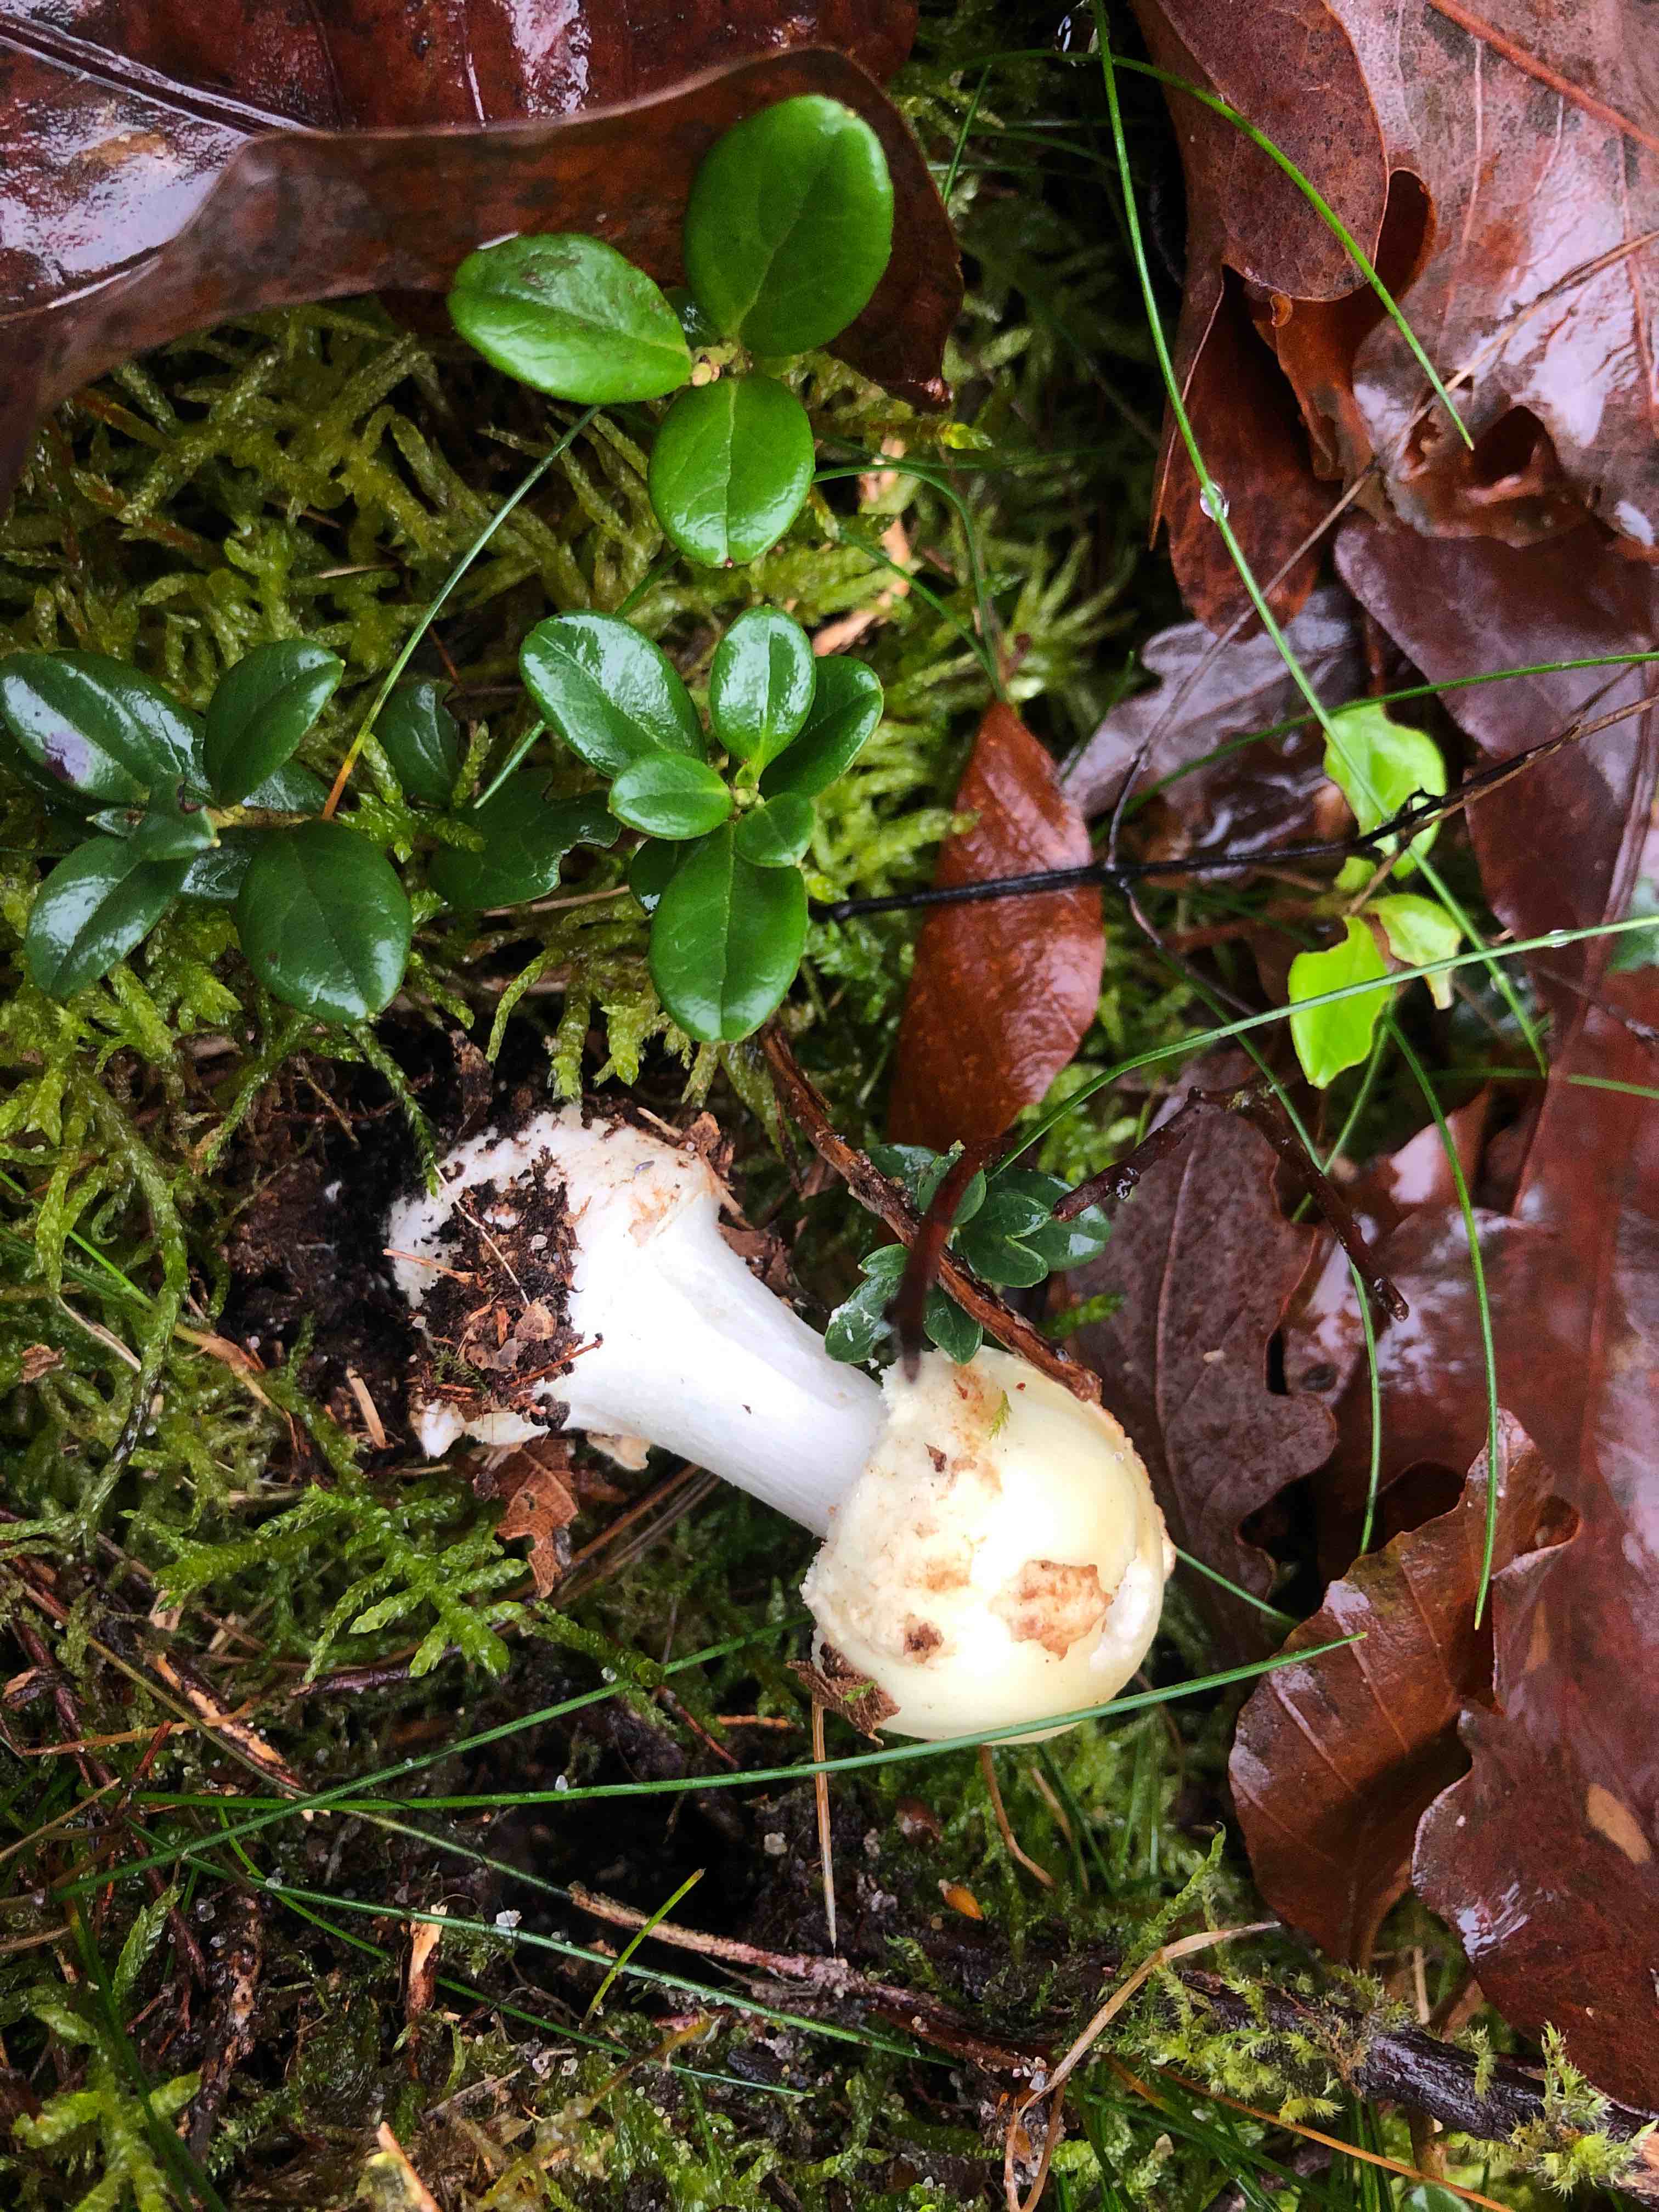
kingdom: Fungi
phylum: Basidiomycota
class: Agaricomycetes
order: Agaricales
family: Amanitaceae
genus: Amanita
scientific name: Amanita citrina
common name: kugleknoldet fluesvamp
